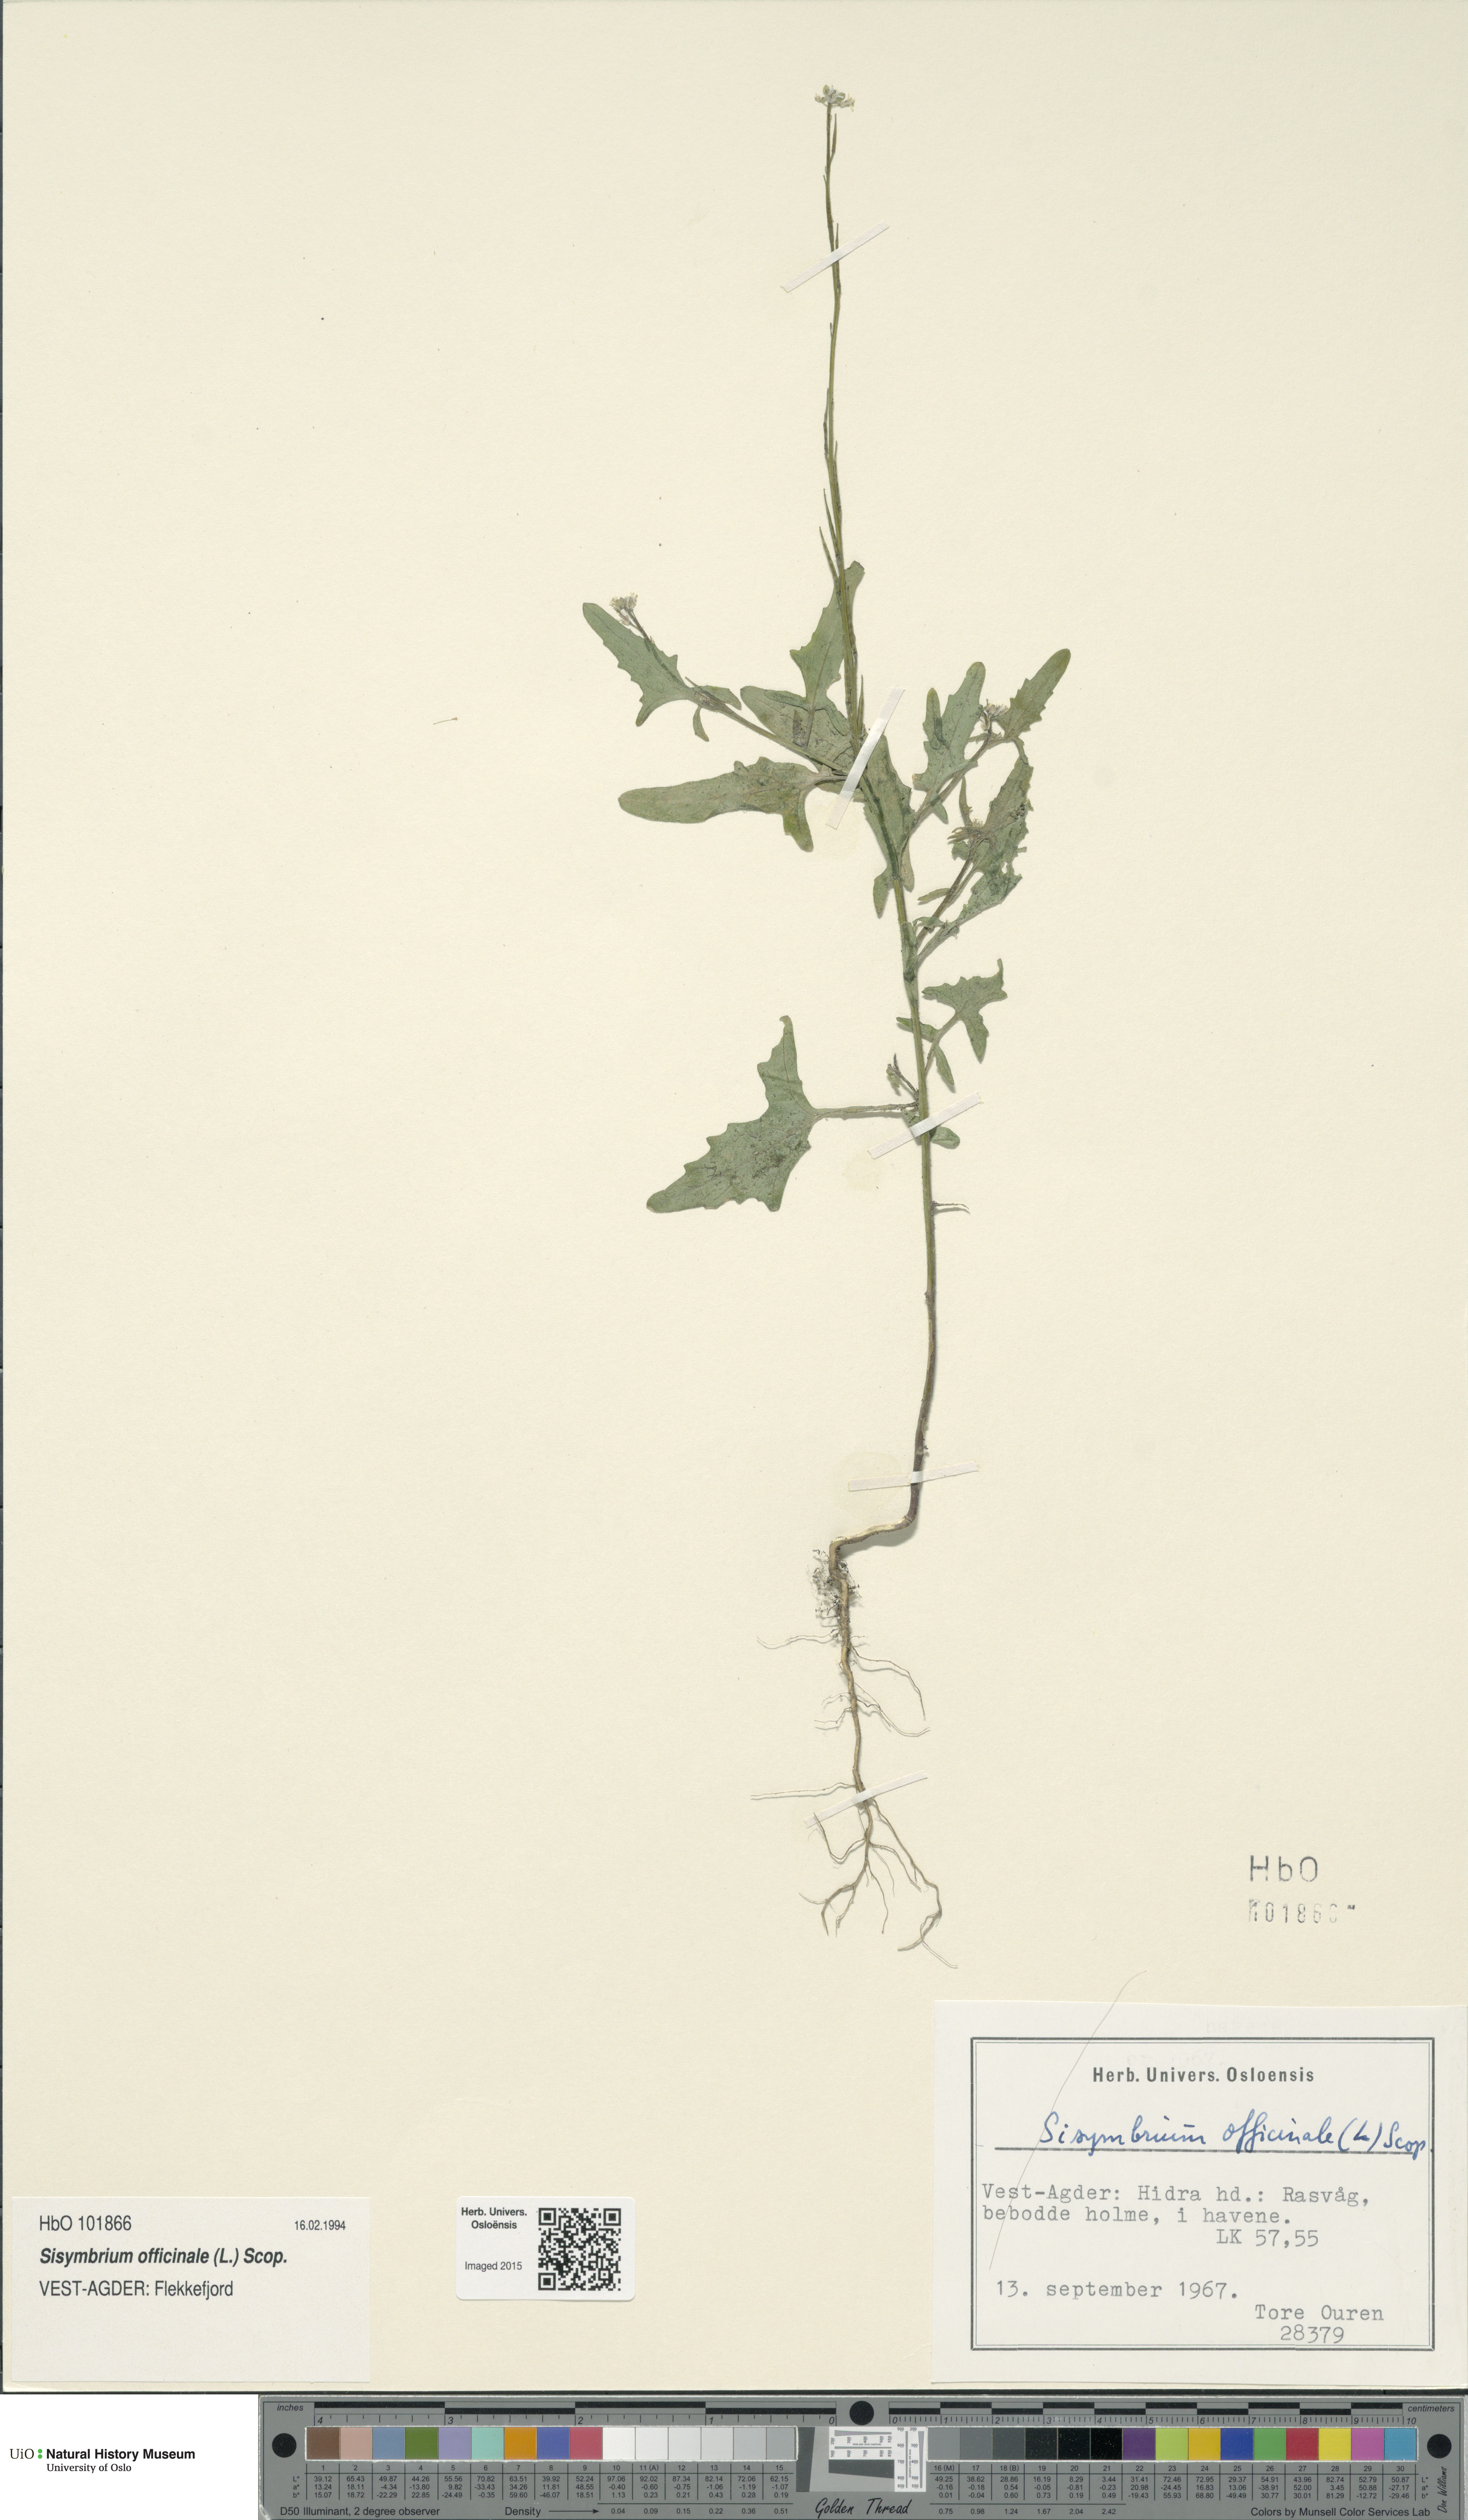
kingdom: Plantae
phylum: Tracheophyta
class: Magnoliopsida
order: Brassicales
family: Brassicaceae
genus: Sisymbrium
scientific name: Sisymbrium officinale
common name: Hedge mustard
